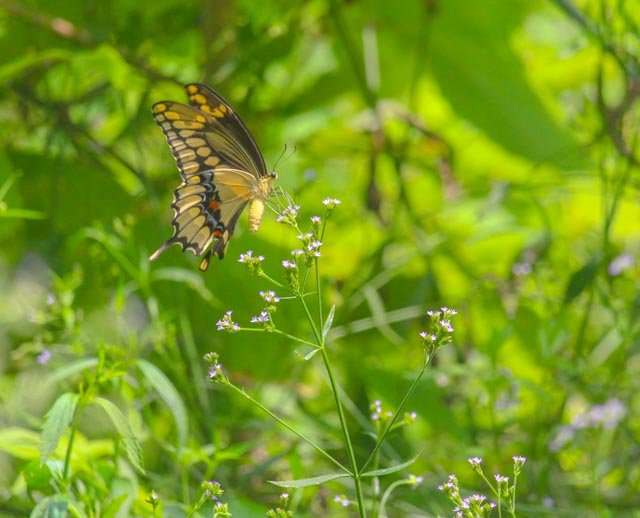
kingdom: Animalia
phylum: Arthropoda
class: Insecta
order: Lepidoptera
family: Papilionidae
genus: Papilio
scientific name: Papilio cresphontes
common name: Eastern Giant Swallowtail
